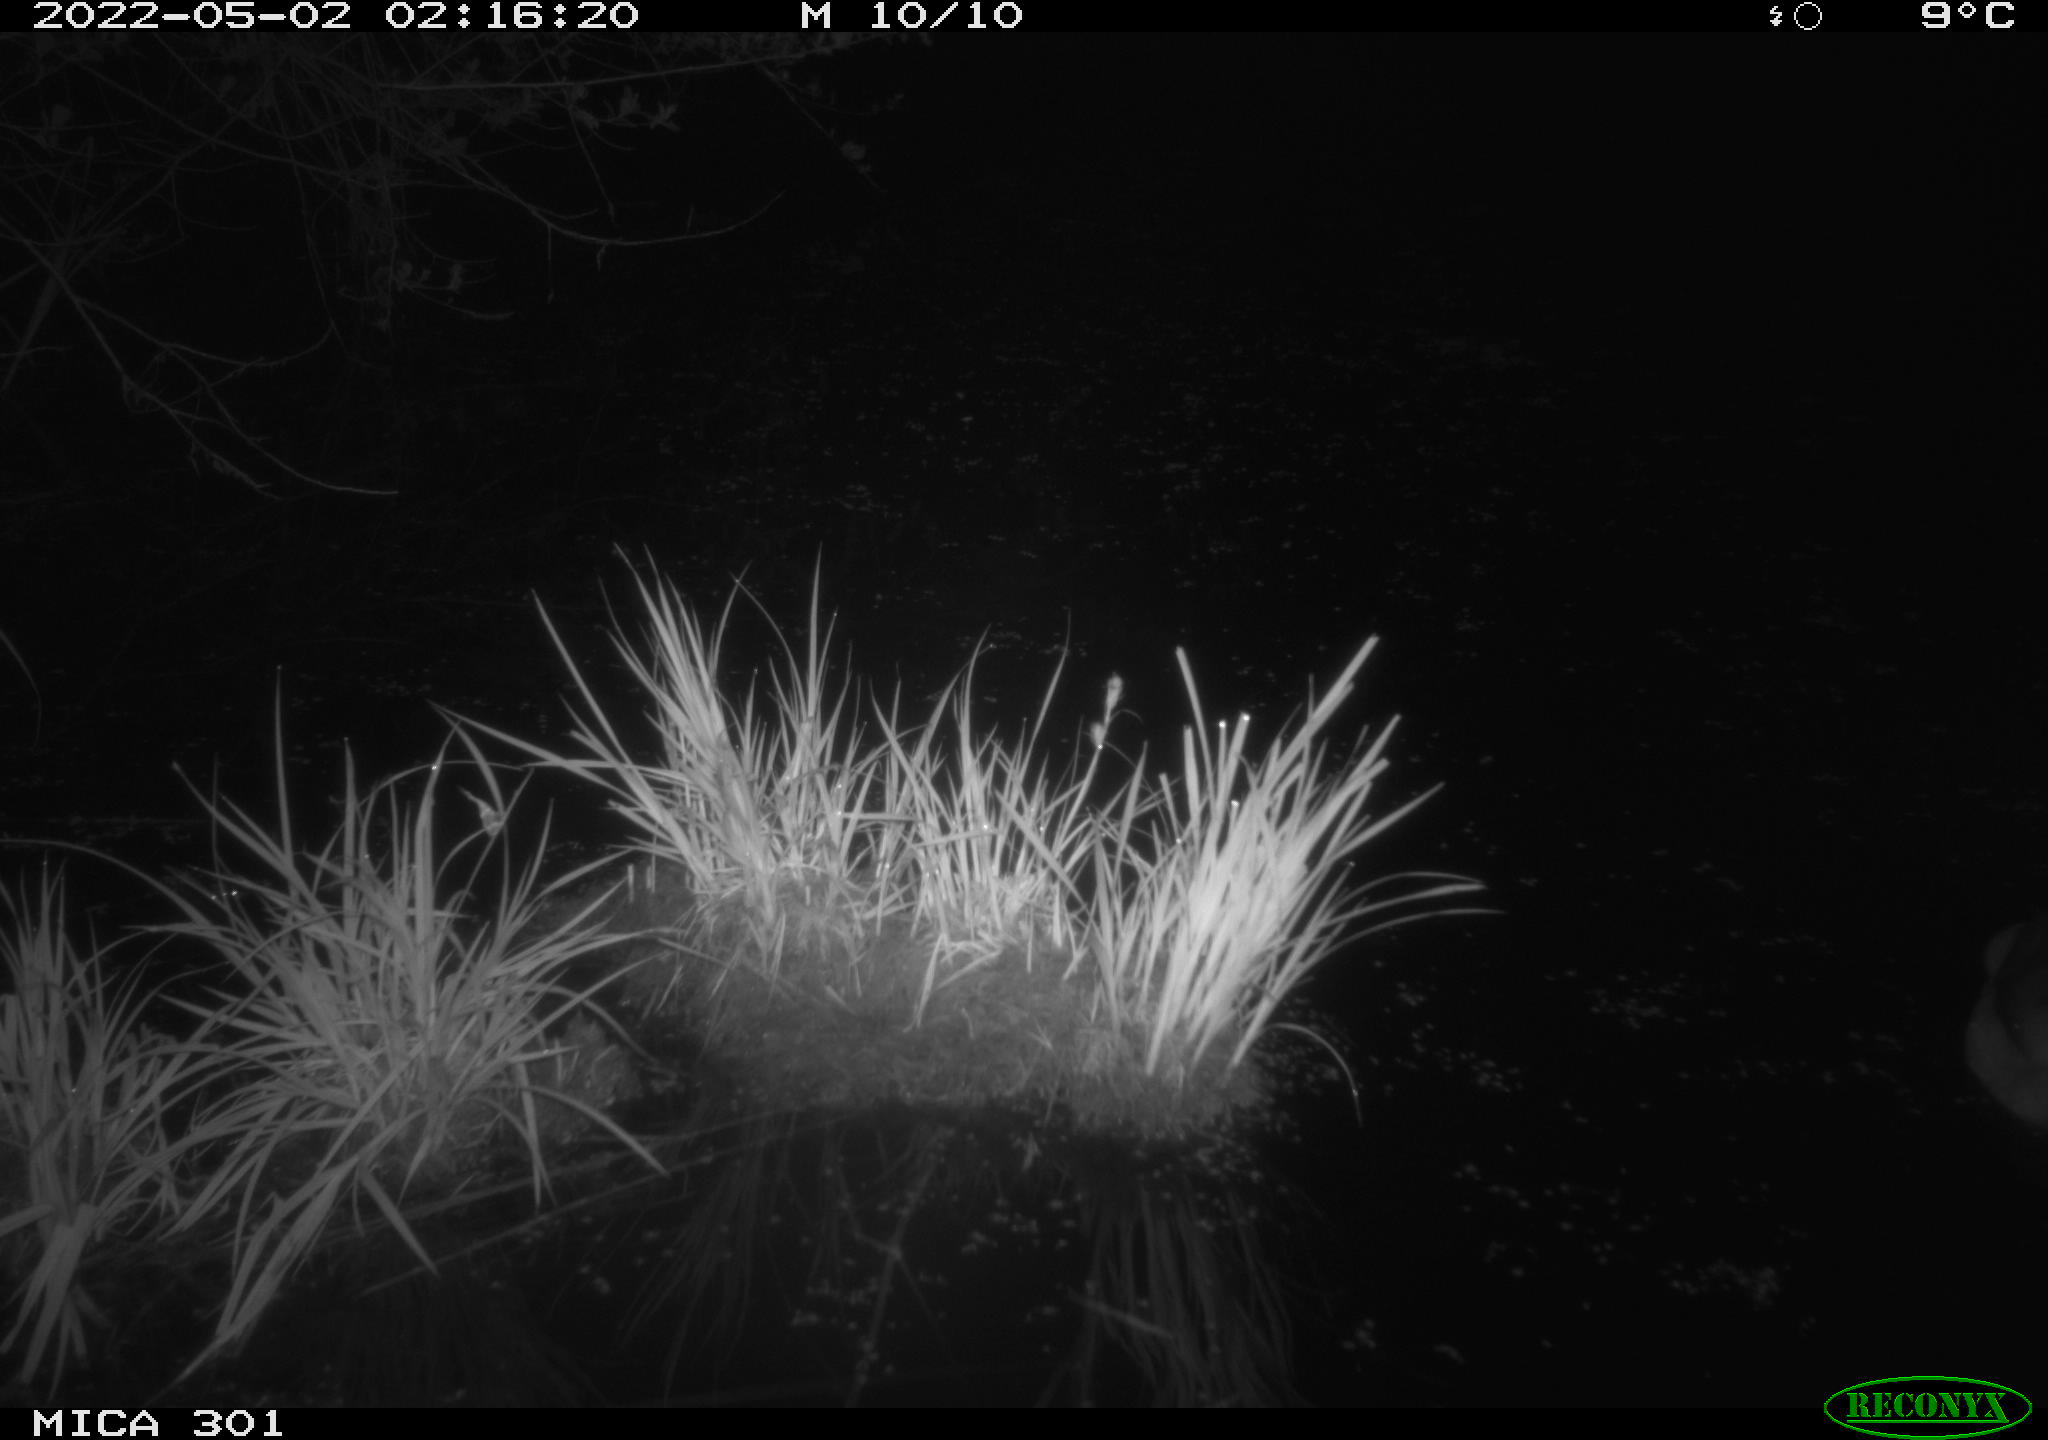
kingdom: Animalia
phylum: Chordata
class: Aves
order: Anseriformes
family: Anatidae
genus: Anas
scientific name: Anas platyrhynchos
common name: Mallard
